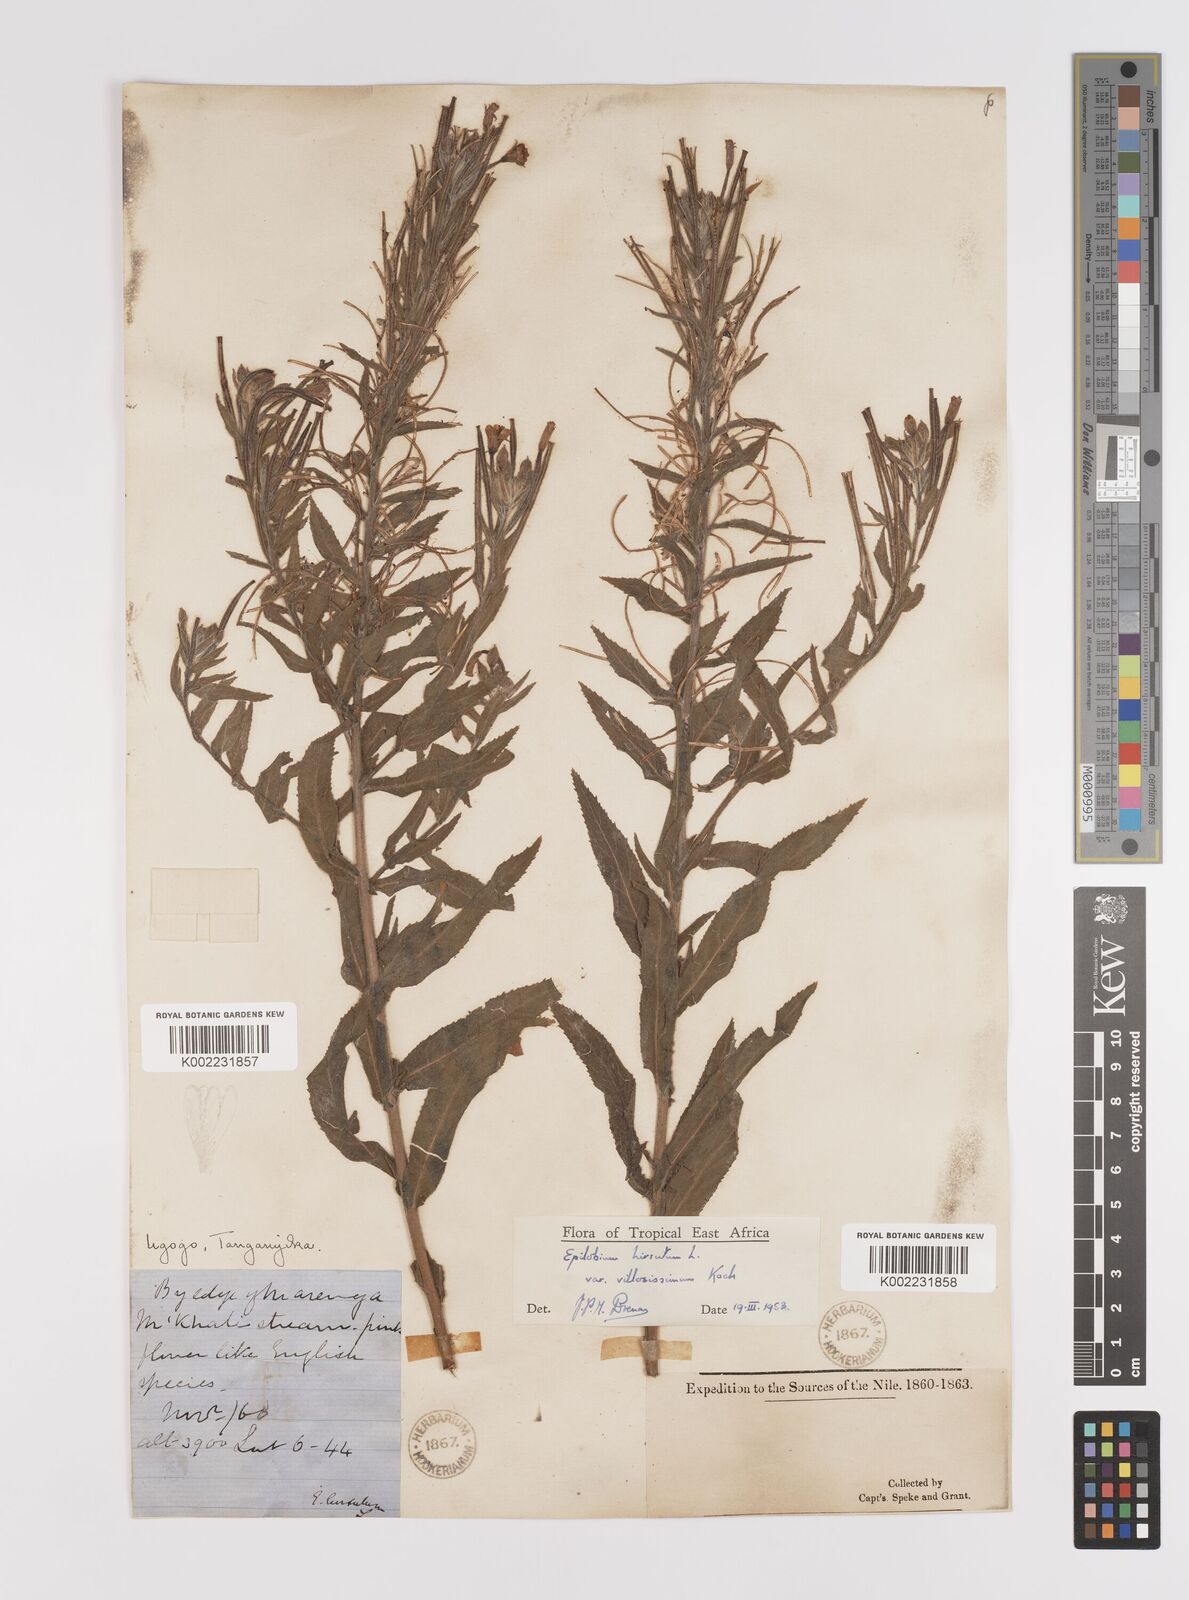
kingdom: Plantae
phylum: Tracheophyta
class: Magnoliopsida
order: Myrtales
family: Onagraceae
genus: Epilobium
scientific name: Epilobium hirsutum
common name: Great willowherb
